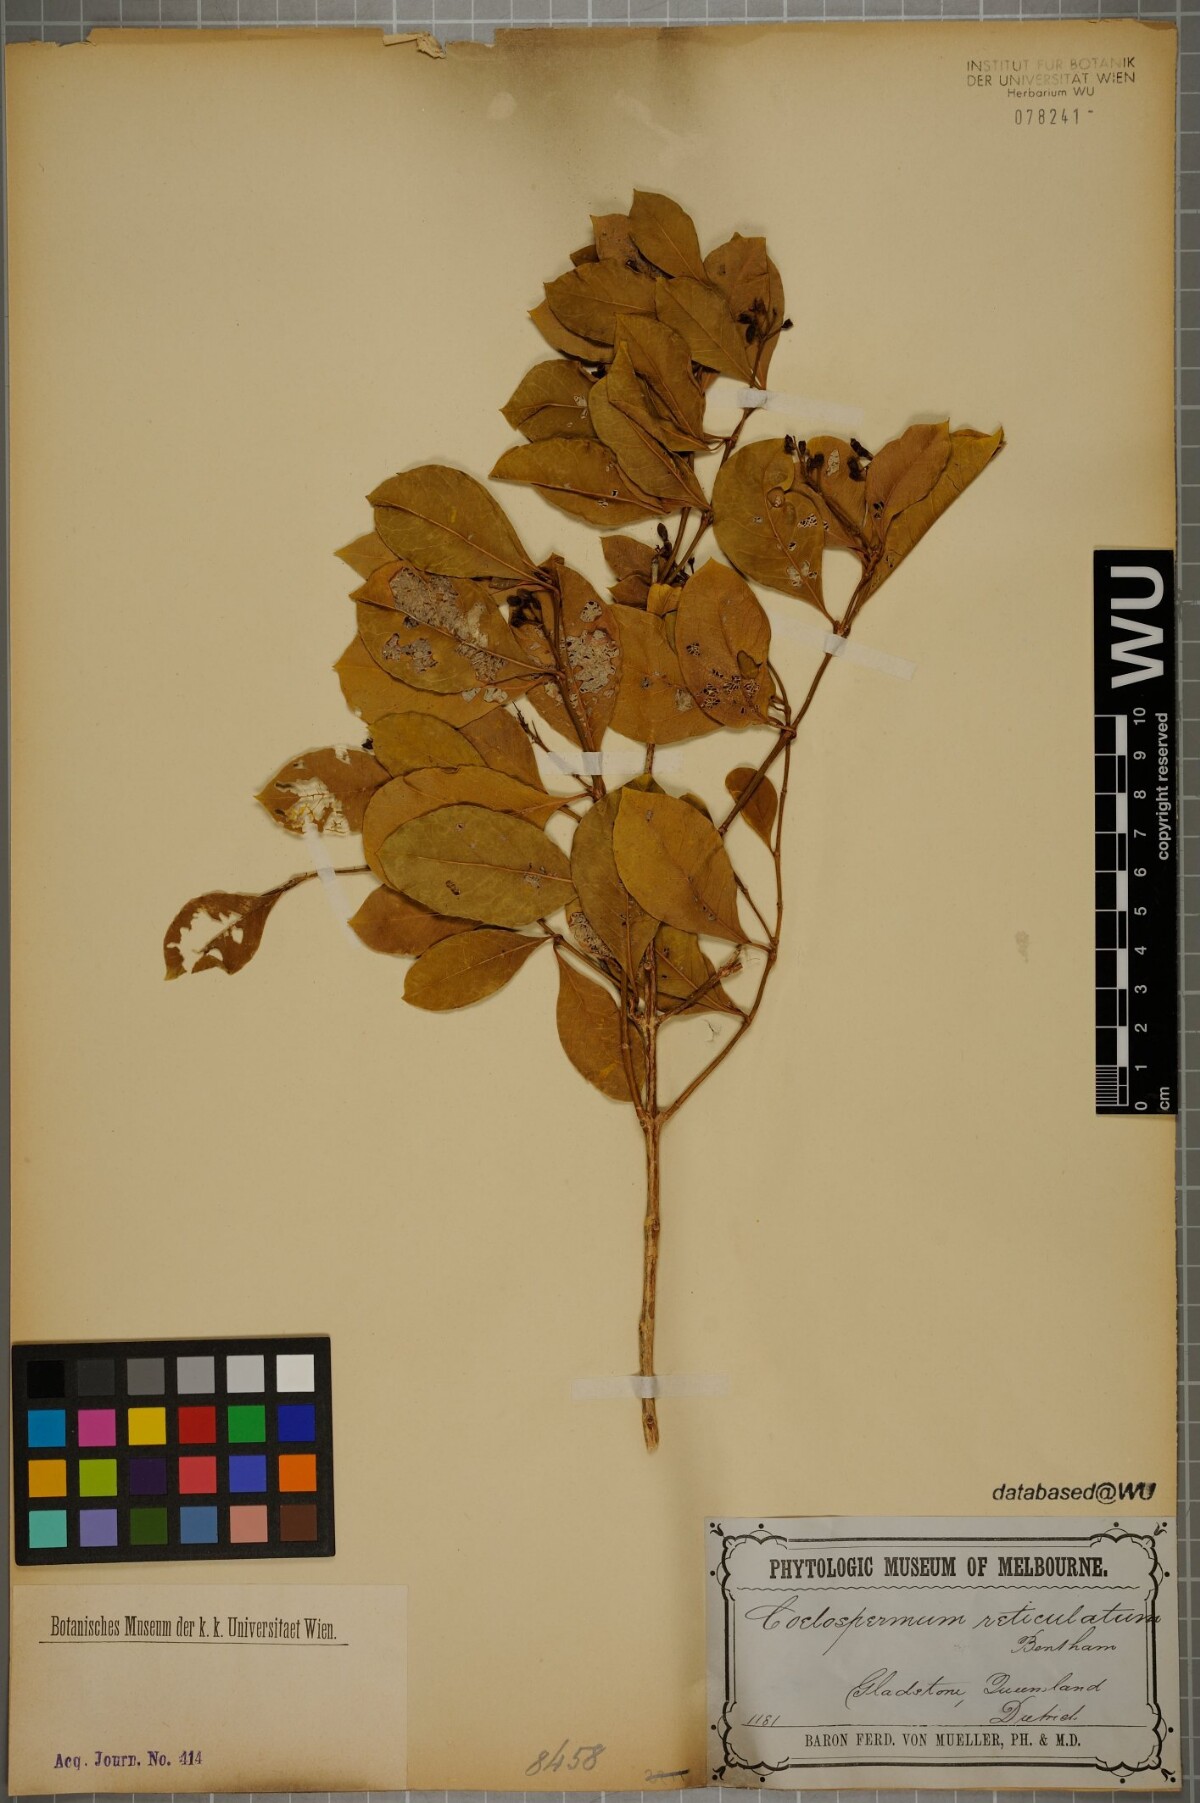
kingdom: Plantae
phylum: Tracheophyta
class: Magnoliopsida
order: Gentianales
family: Rubiaceae
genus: Coelospermum
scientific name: Coelospermum reticulatum
